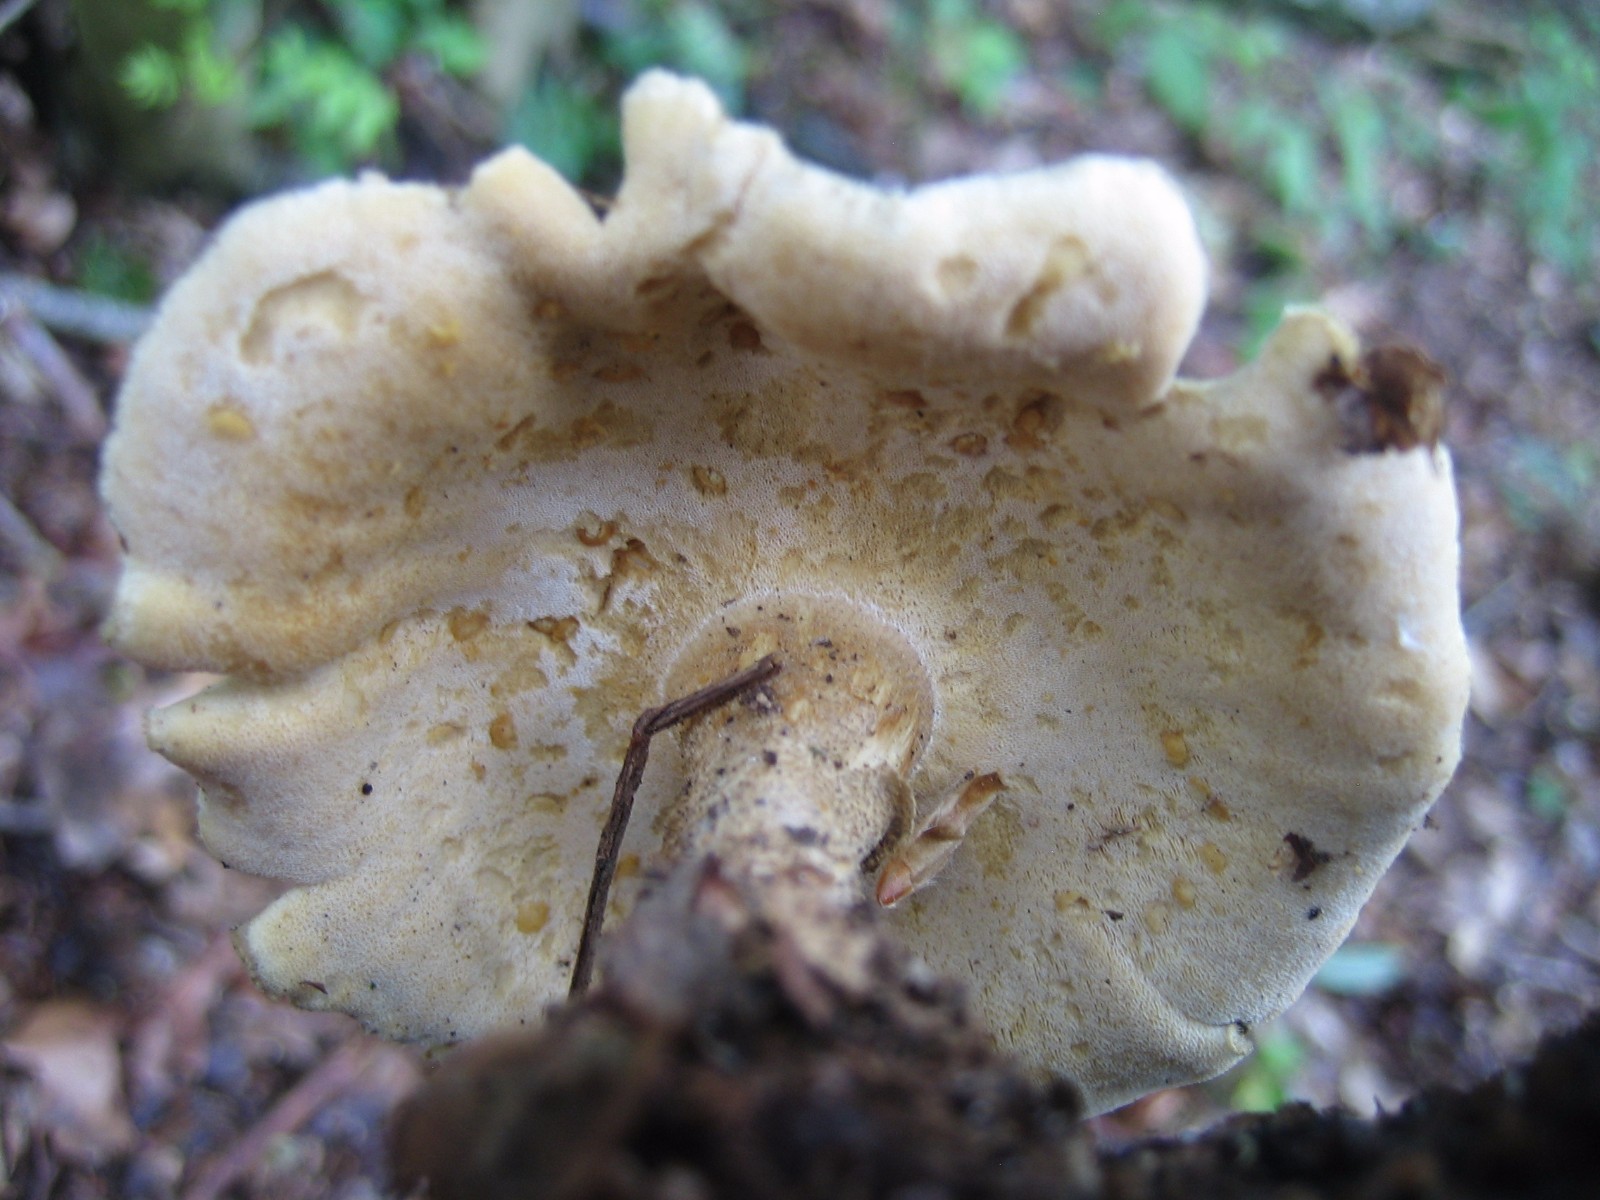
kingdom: Fungi
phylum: Basidiomycota
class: Agaricomycetes
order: Polyporales
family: Polyporaceae
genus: Lentinus
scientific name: Lentinus substrictus
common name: forårs-stilkporesvamp
